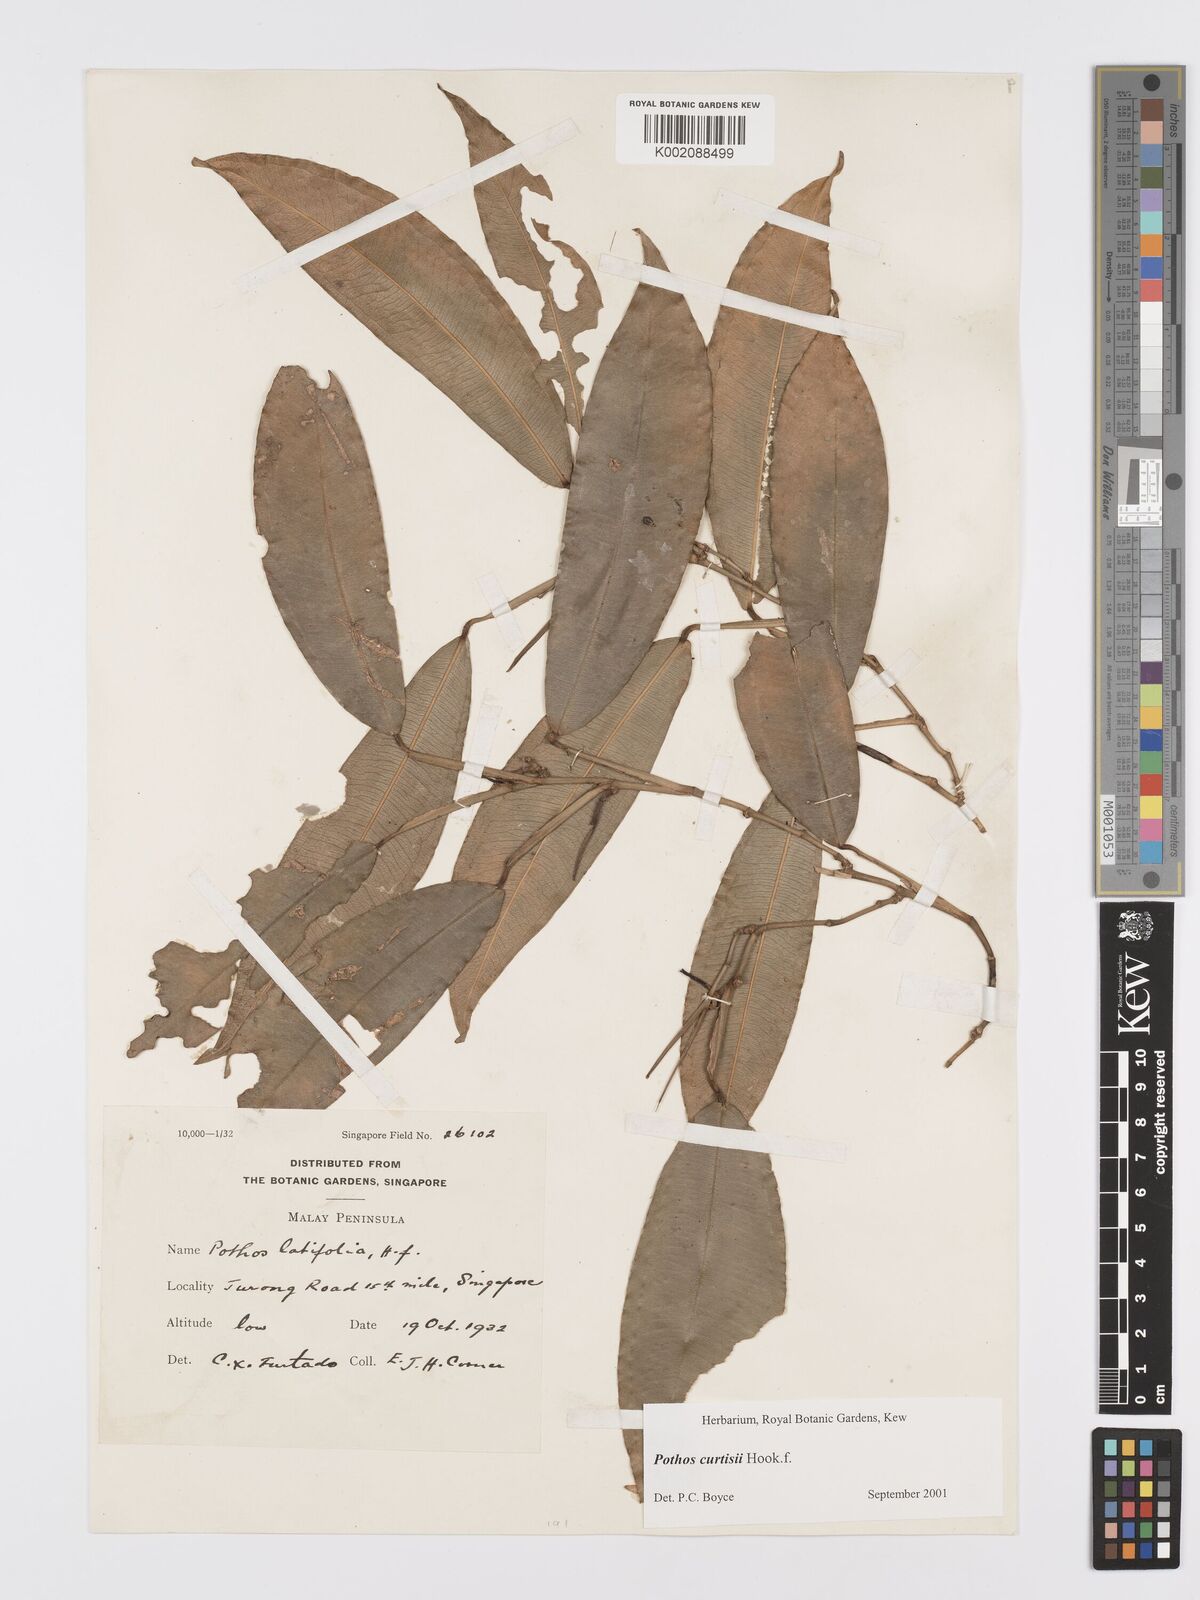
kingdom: Plantae
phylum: Tracheophyta
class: Liliopsida
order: Alismatales
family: Araceae
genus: Pothos
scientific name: Pothos curtisii
